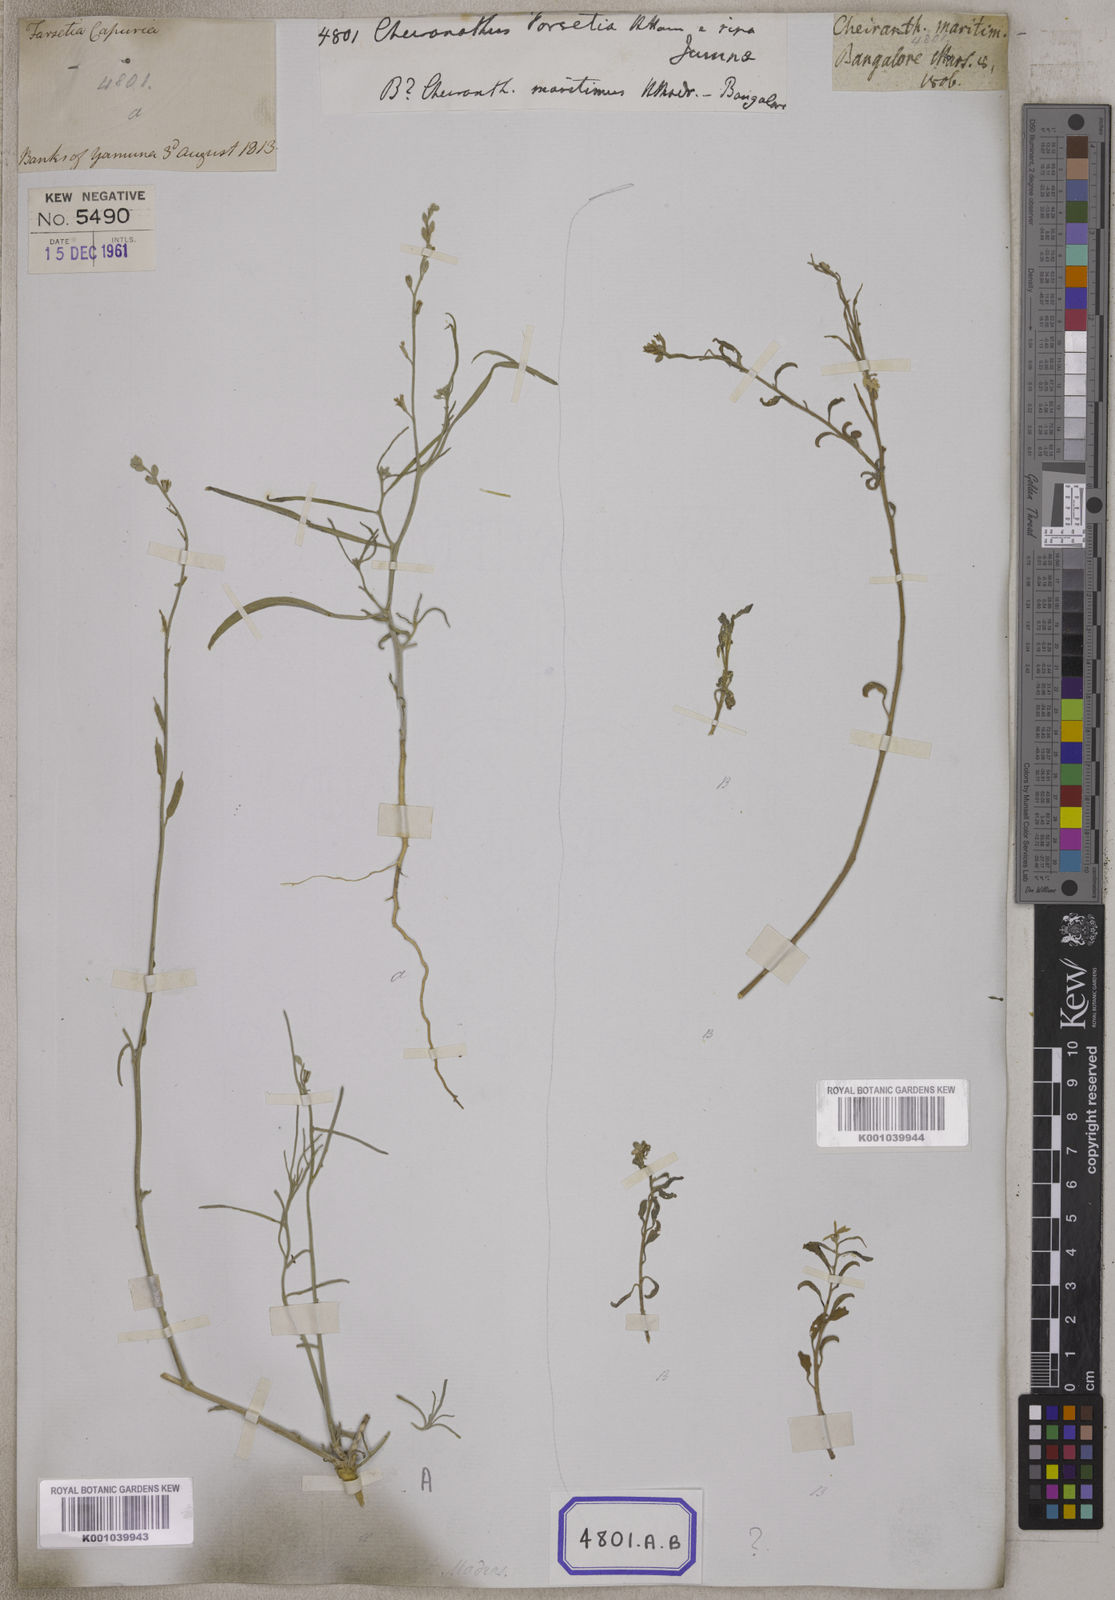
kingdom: Plantae
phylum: Tracheophyta
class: Magnoliopsida
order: Brassicales
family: Brassicaceae
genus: Erysimum
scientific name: Erysimum
